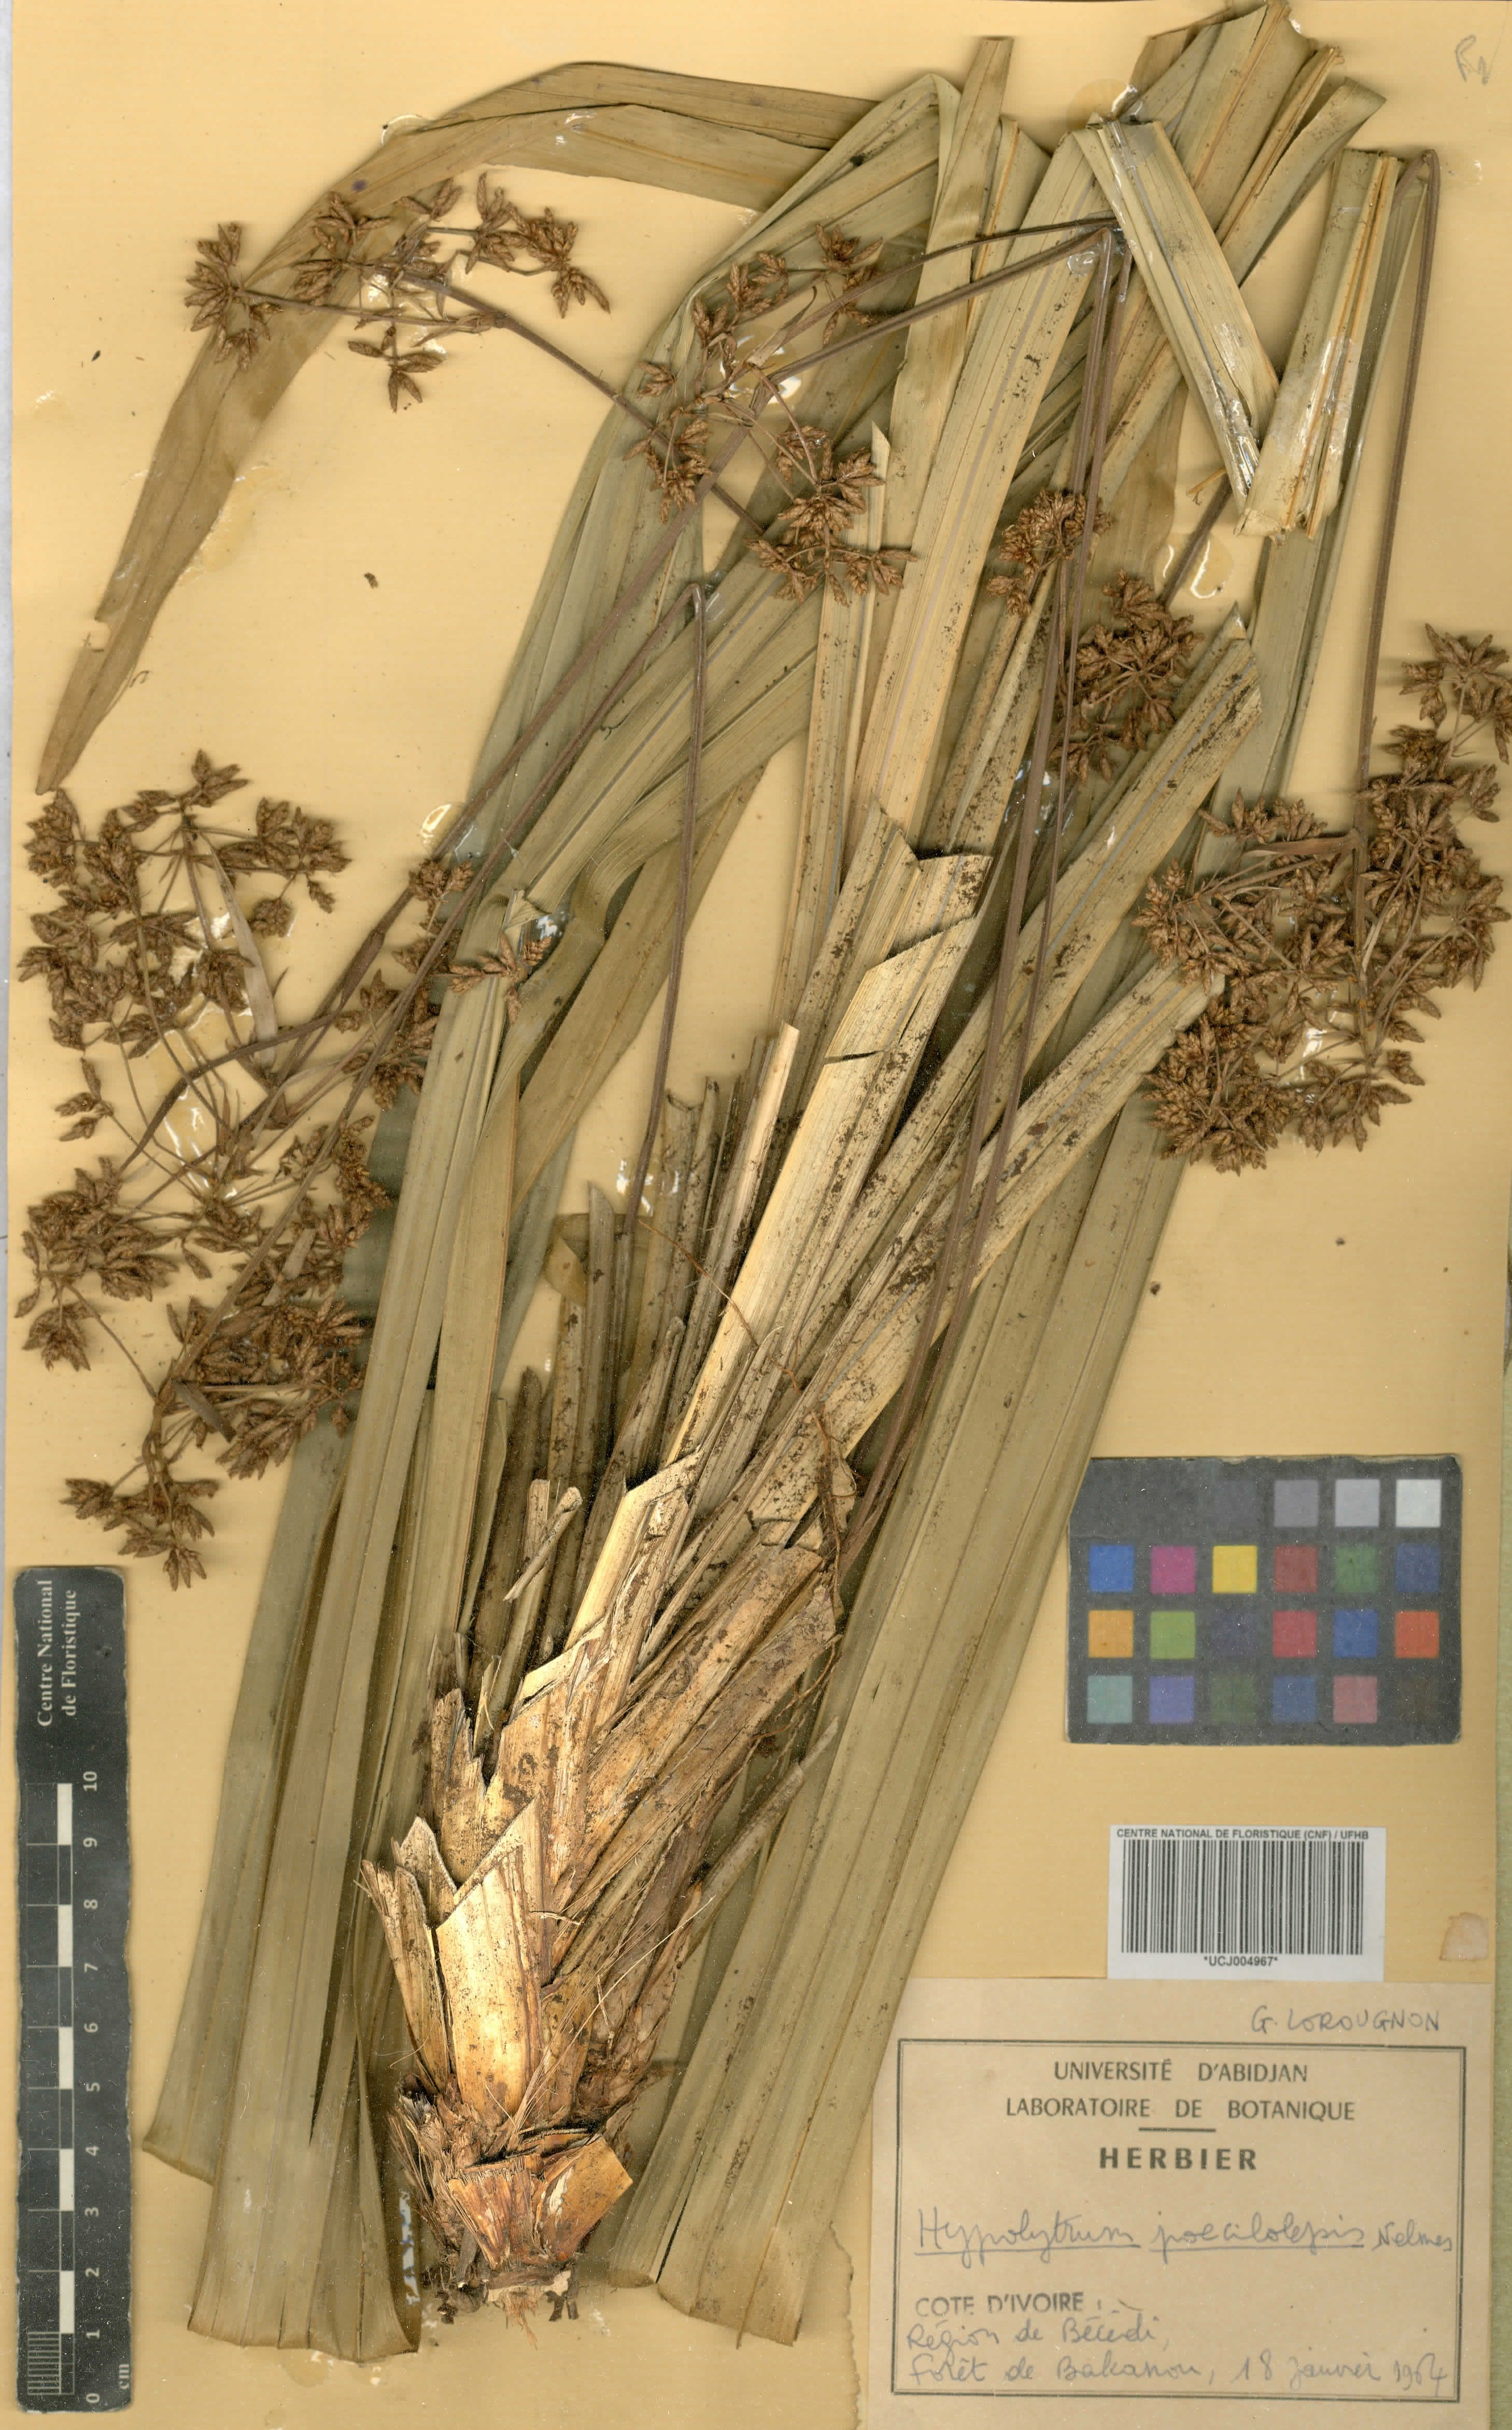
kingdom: Plantae
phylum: Tracheophyta
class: Liliopsida
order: Poales
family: Cyperaceae
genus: Hypolytrum
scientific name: Hypolytrum poecilolepis
